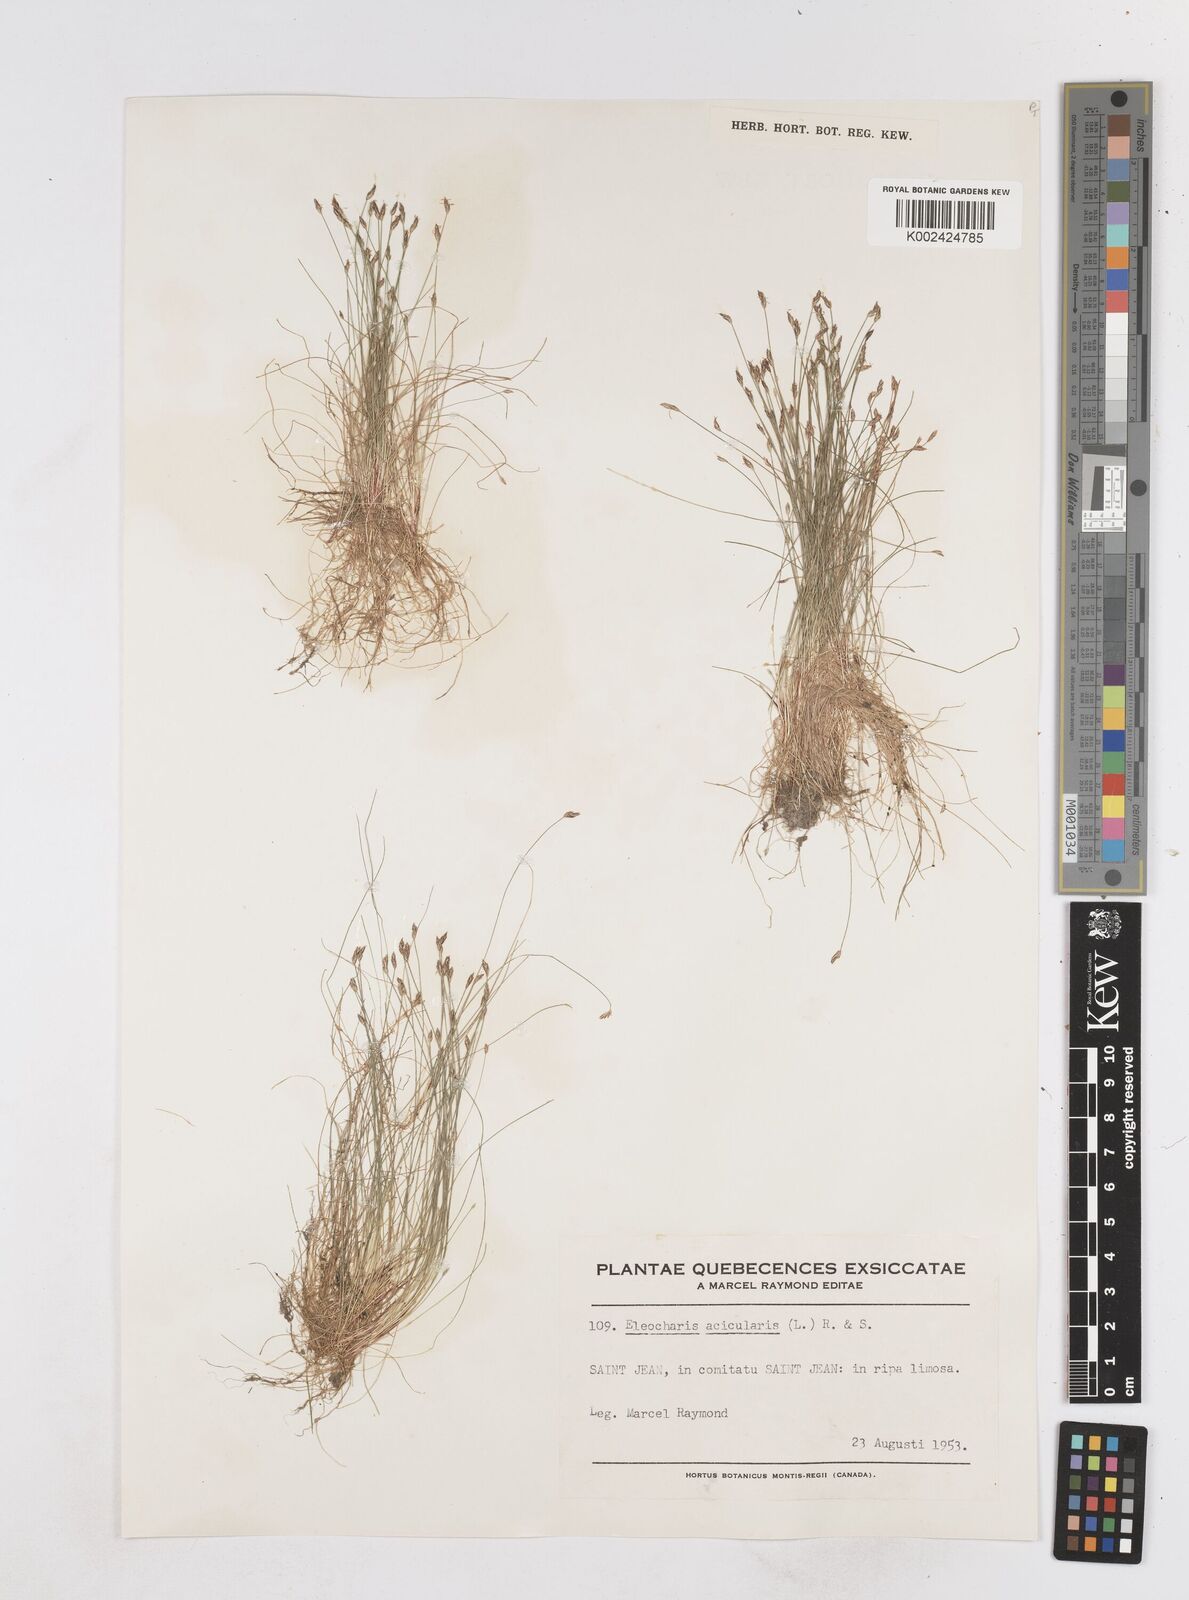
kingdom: Plantae
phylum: Tracheophyta
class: Liliopsida
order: Poales
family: Cyperaceae
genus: Eleocharis
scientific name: Eleocharis acicularis
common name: Needle spike-rush
